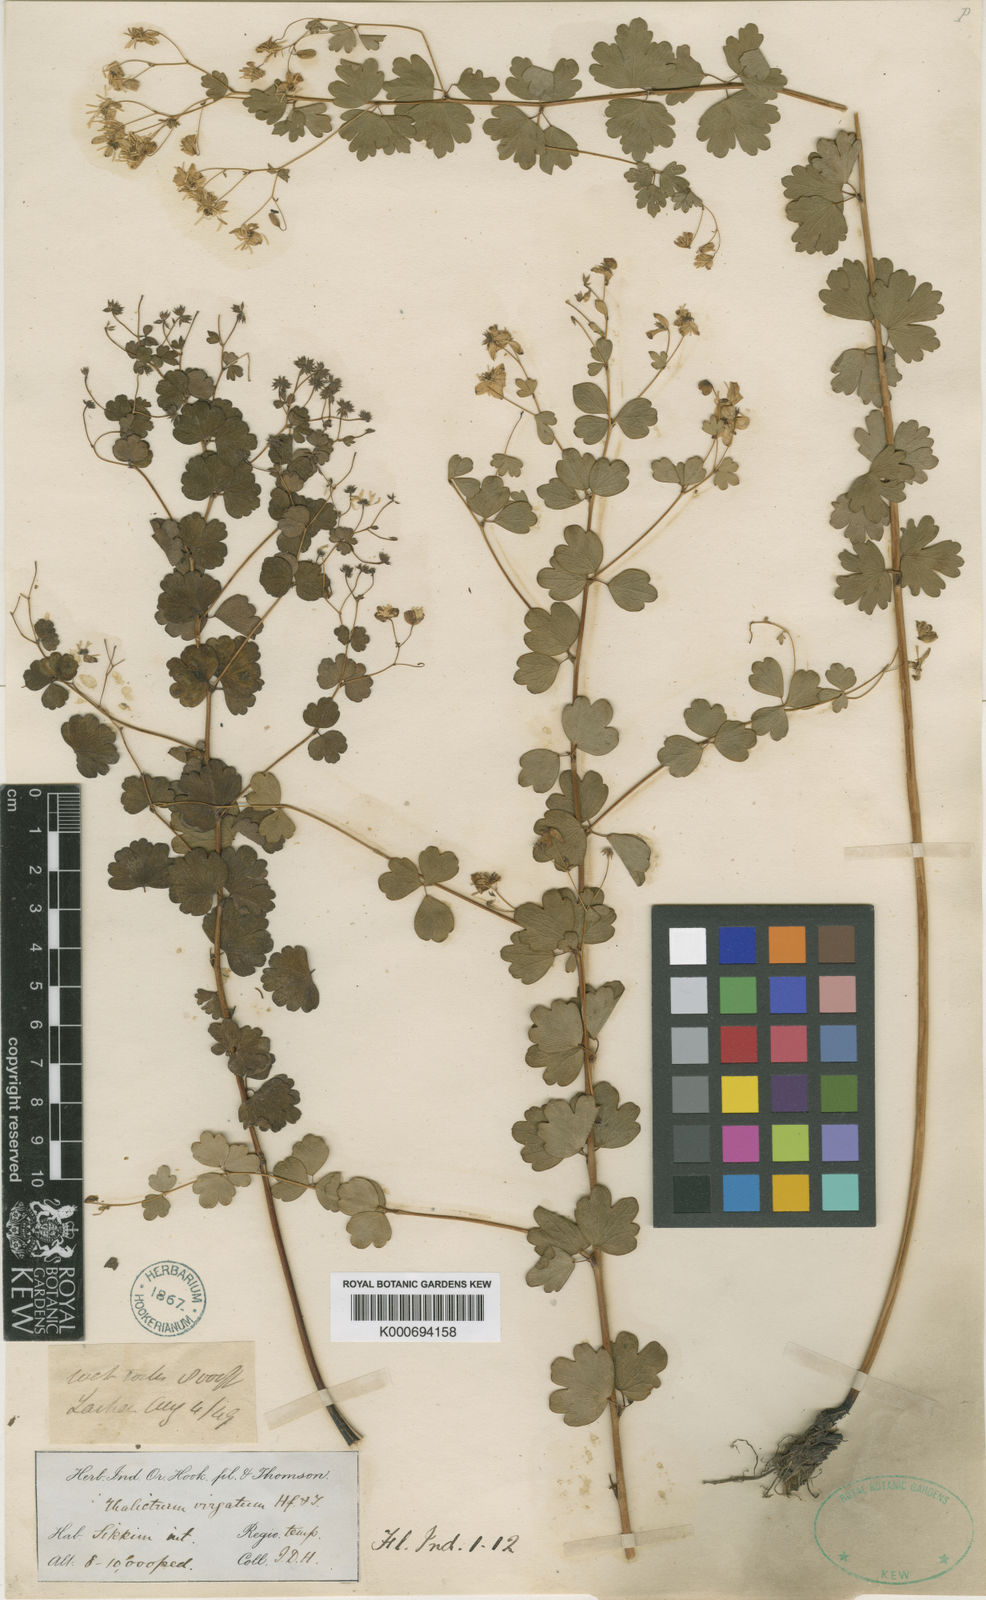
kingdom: Plantae
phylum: Tracheophyta
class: Magnoliopsida
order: Ranunculales
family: Ranunculaceae
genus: Thalictrum
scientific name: Thalictrum virgatum
